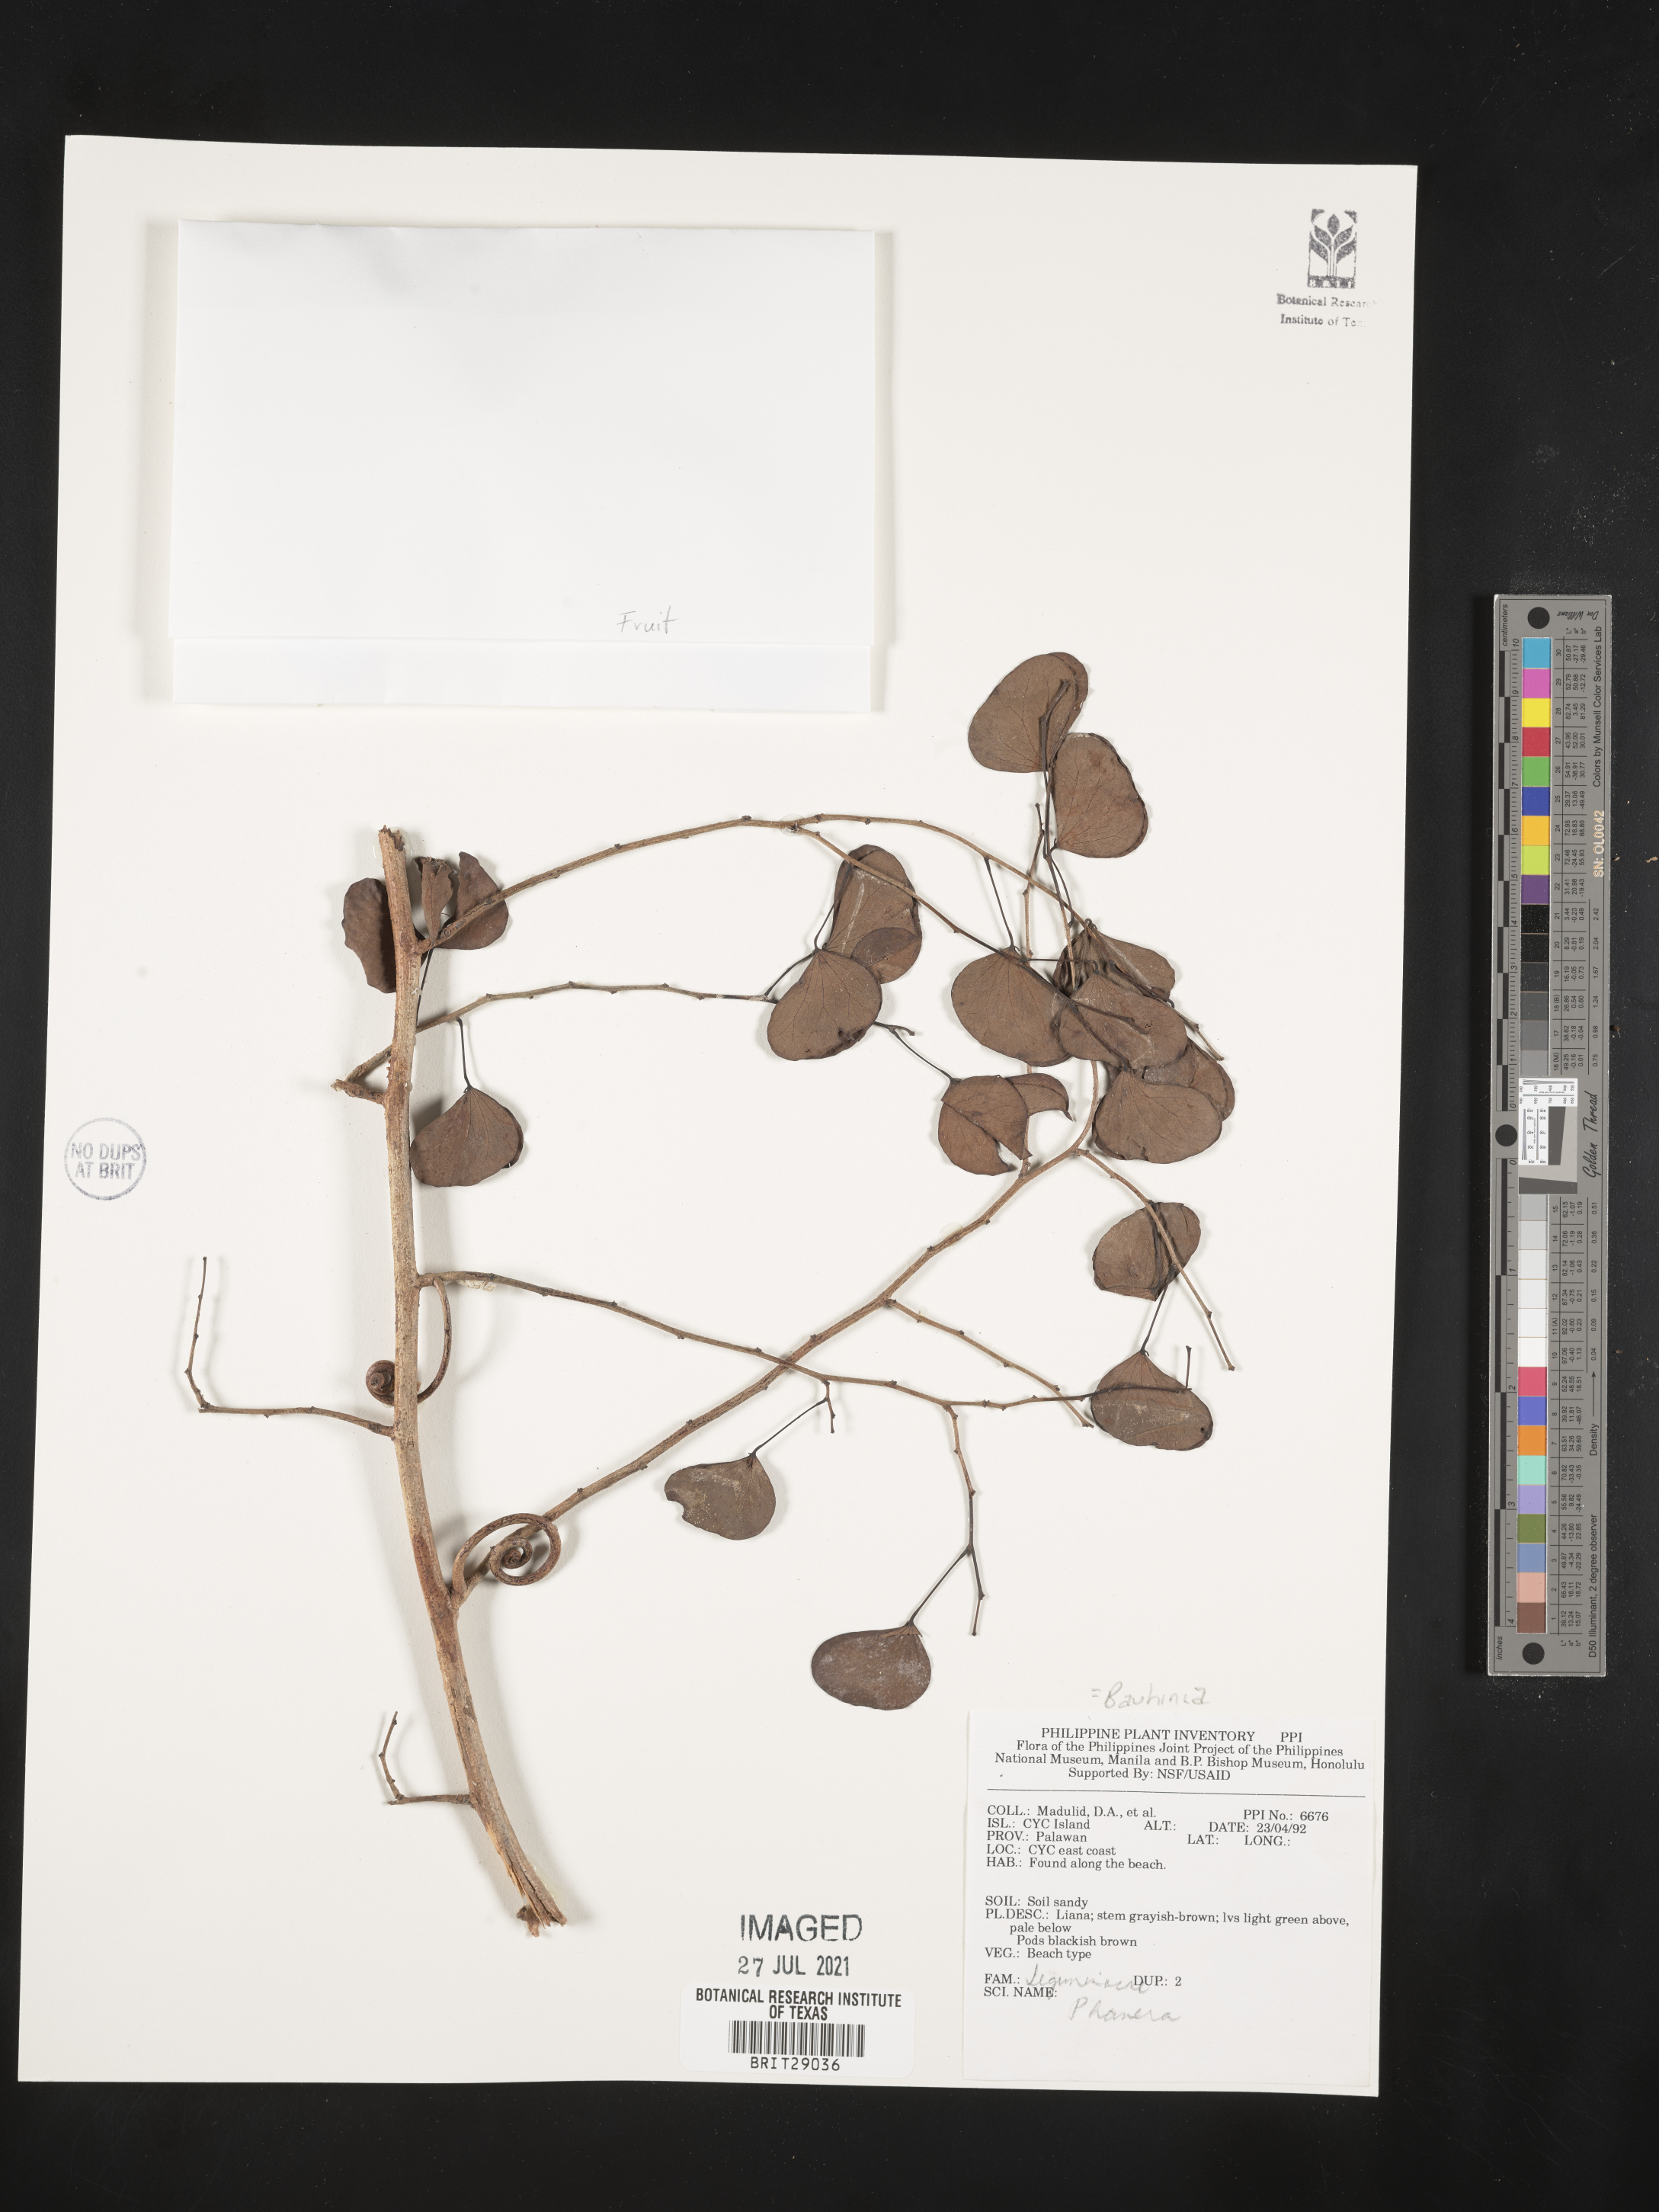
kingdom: Plantae
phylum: Tracheophyta
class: Magnoliopsida
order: Fabales
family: Fabaceae
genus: Bauhinia
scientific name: Bauhinia
